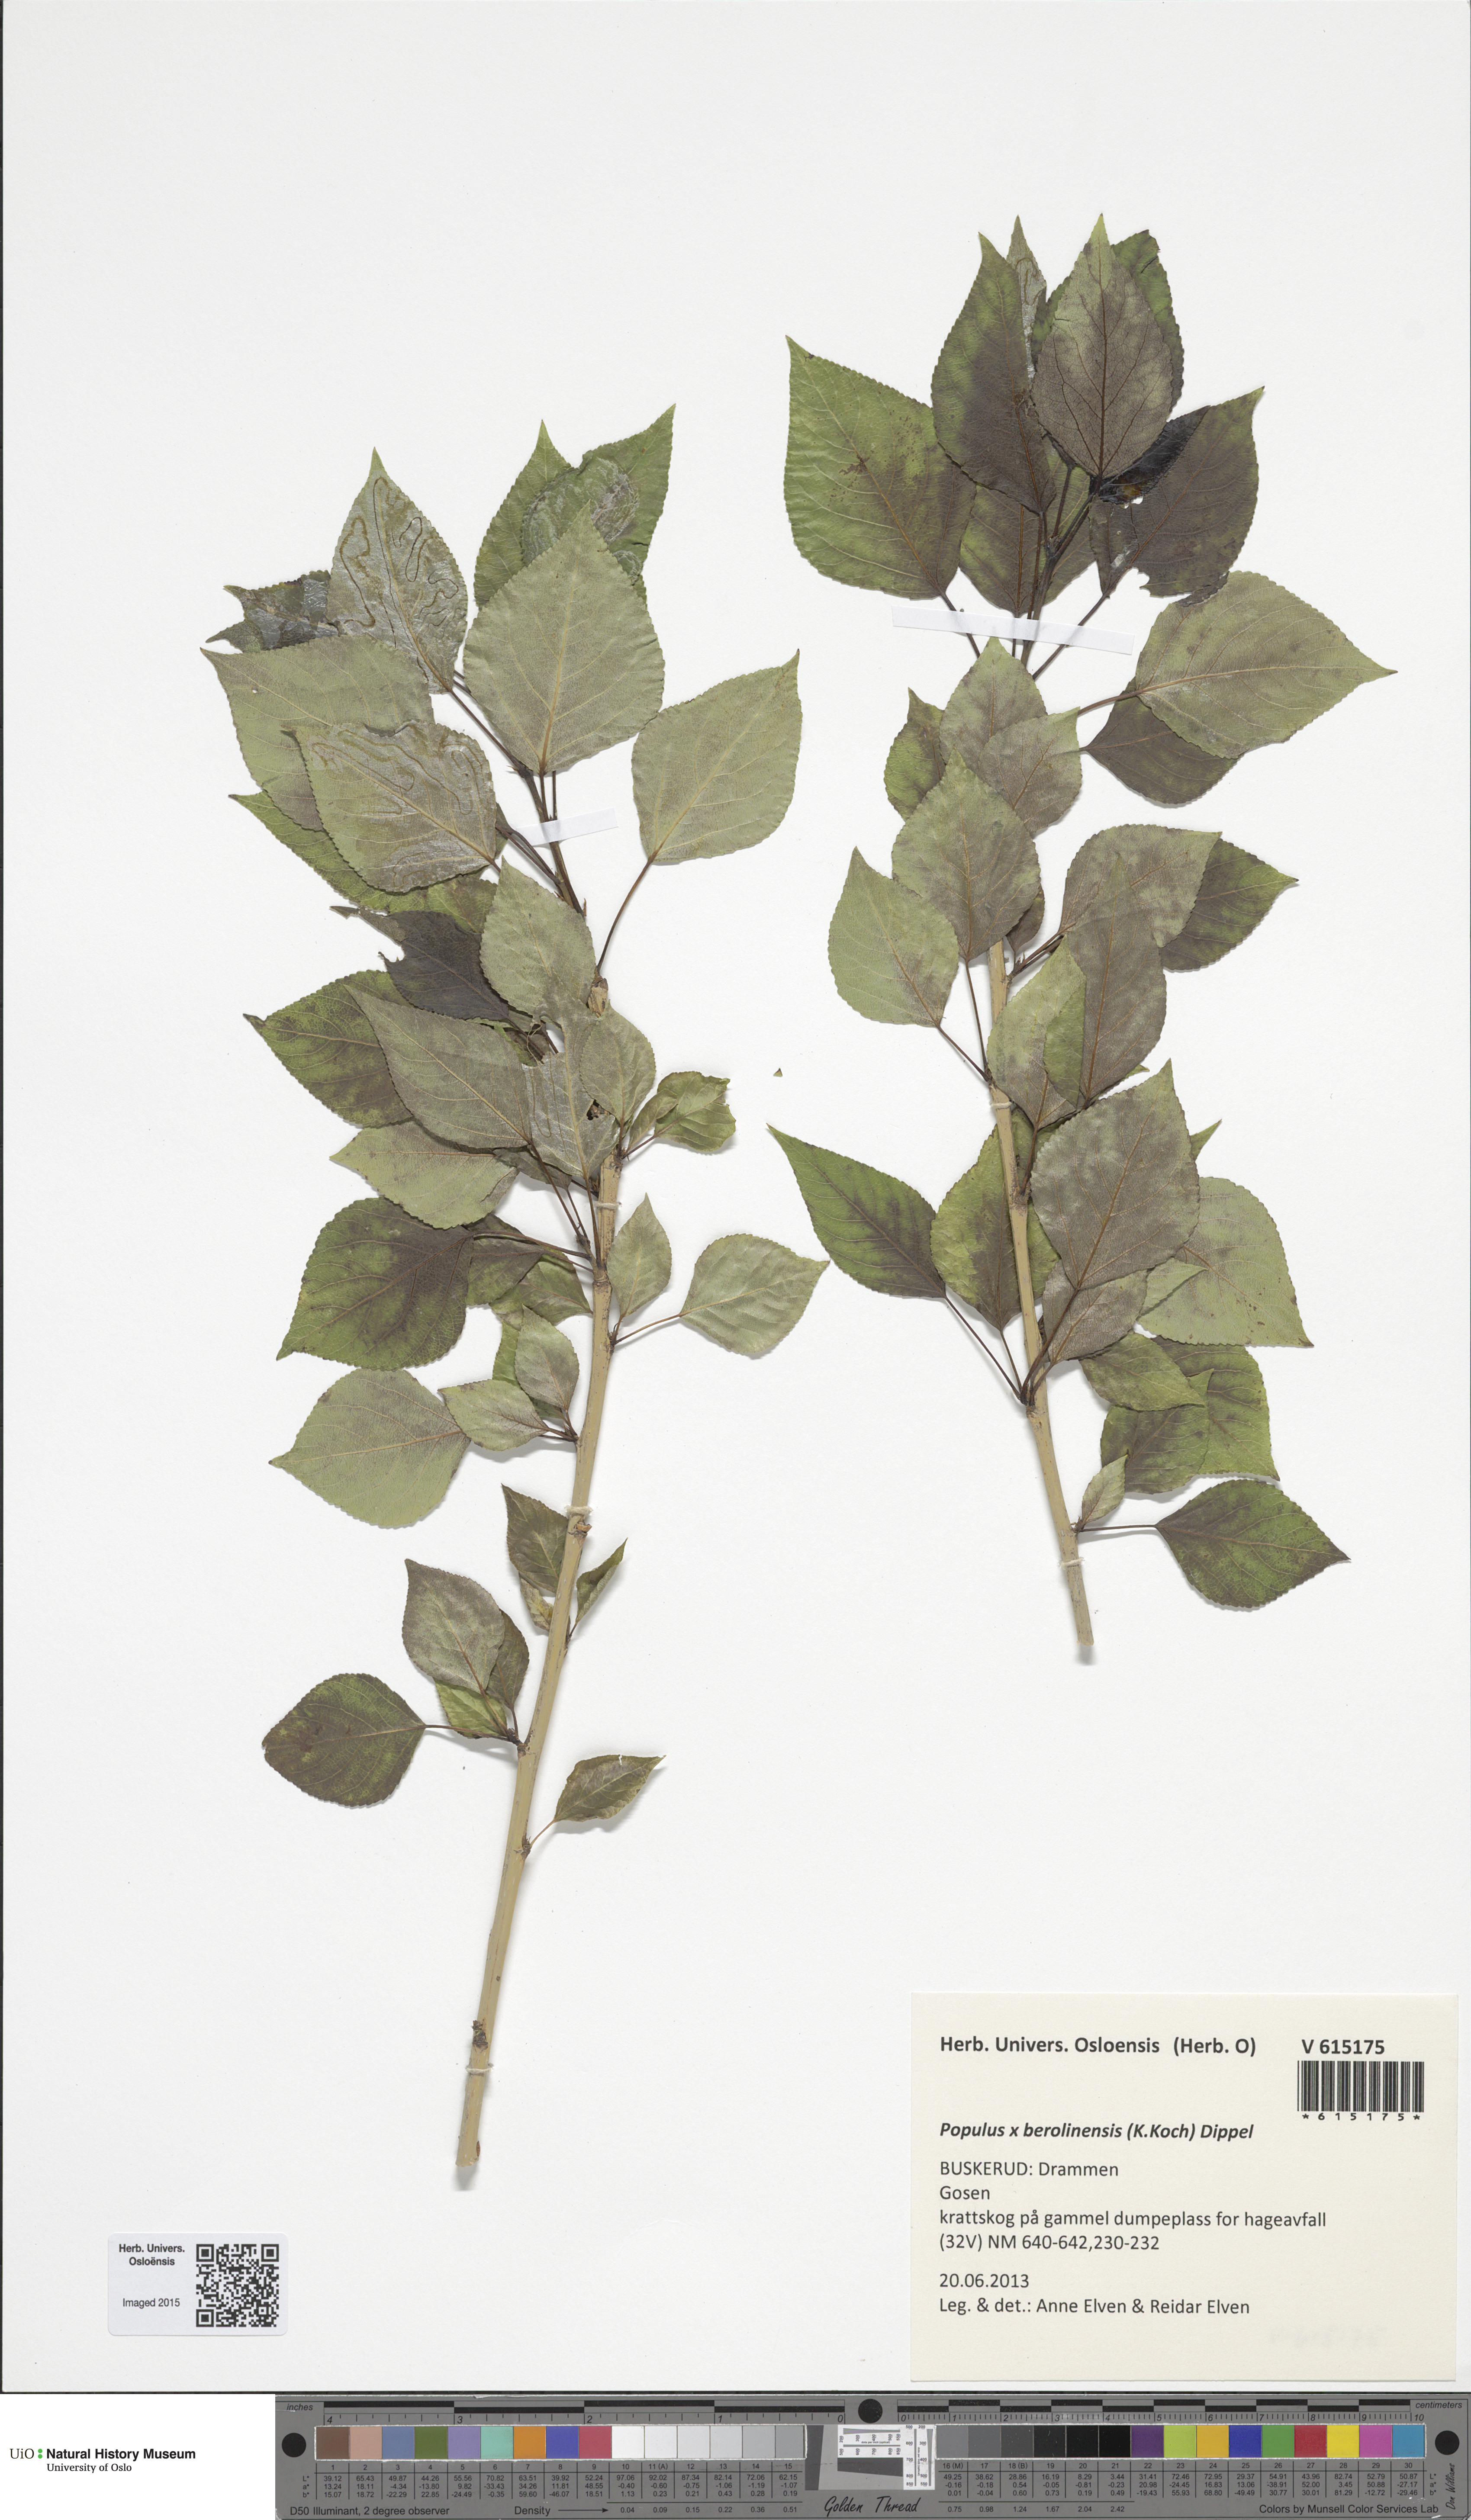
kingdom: Plantae
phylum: Tracheophyta
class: Magnoliopsida
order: Malpighiales
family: Salicaceae
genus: Populus
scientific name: Populus berolinensis
